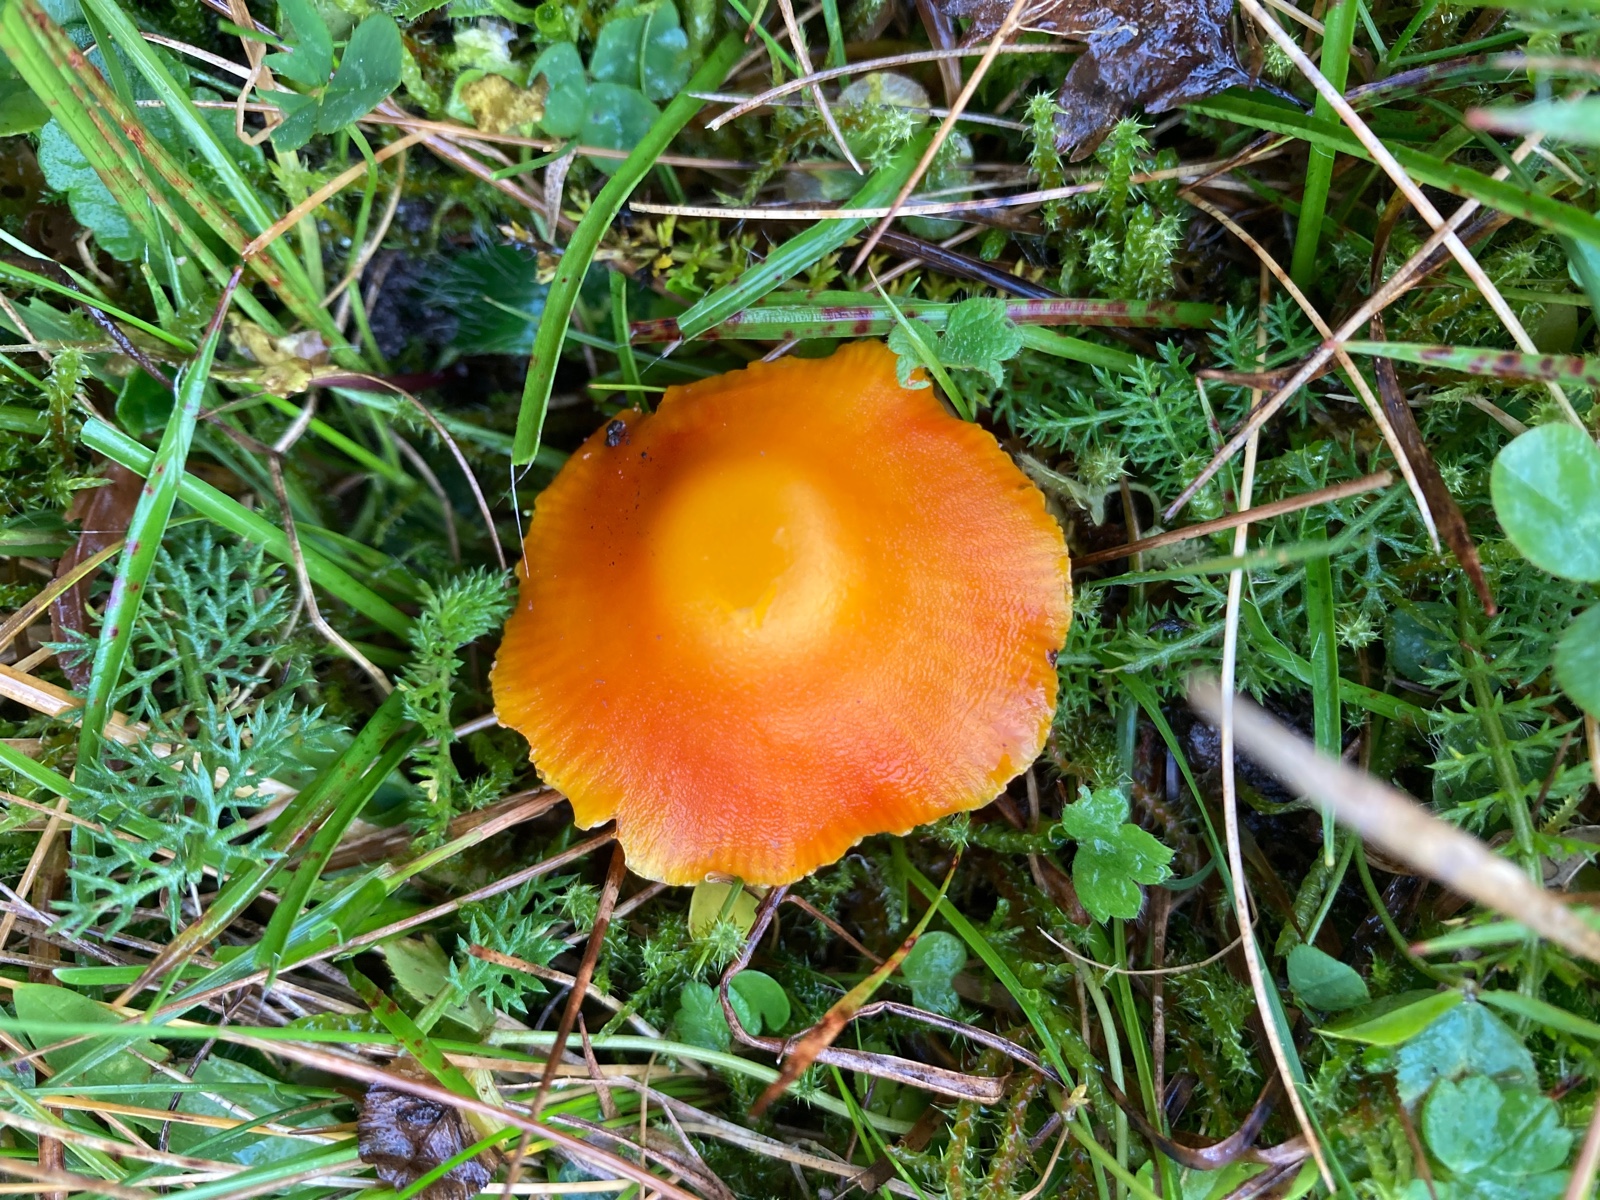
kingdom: Fungi
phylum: Basidiomycota
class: Agaricomycetes
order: Agaricales
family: Hygrophoraceae
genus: Hygrocybe
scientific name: Hygrocybe ceracea
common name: voksgul vokshat
